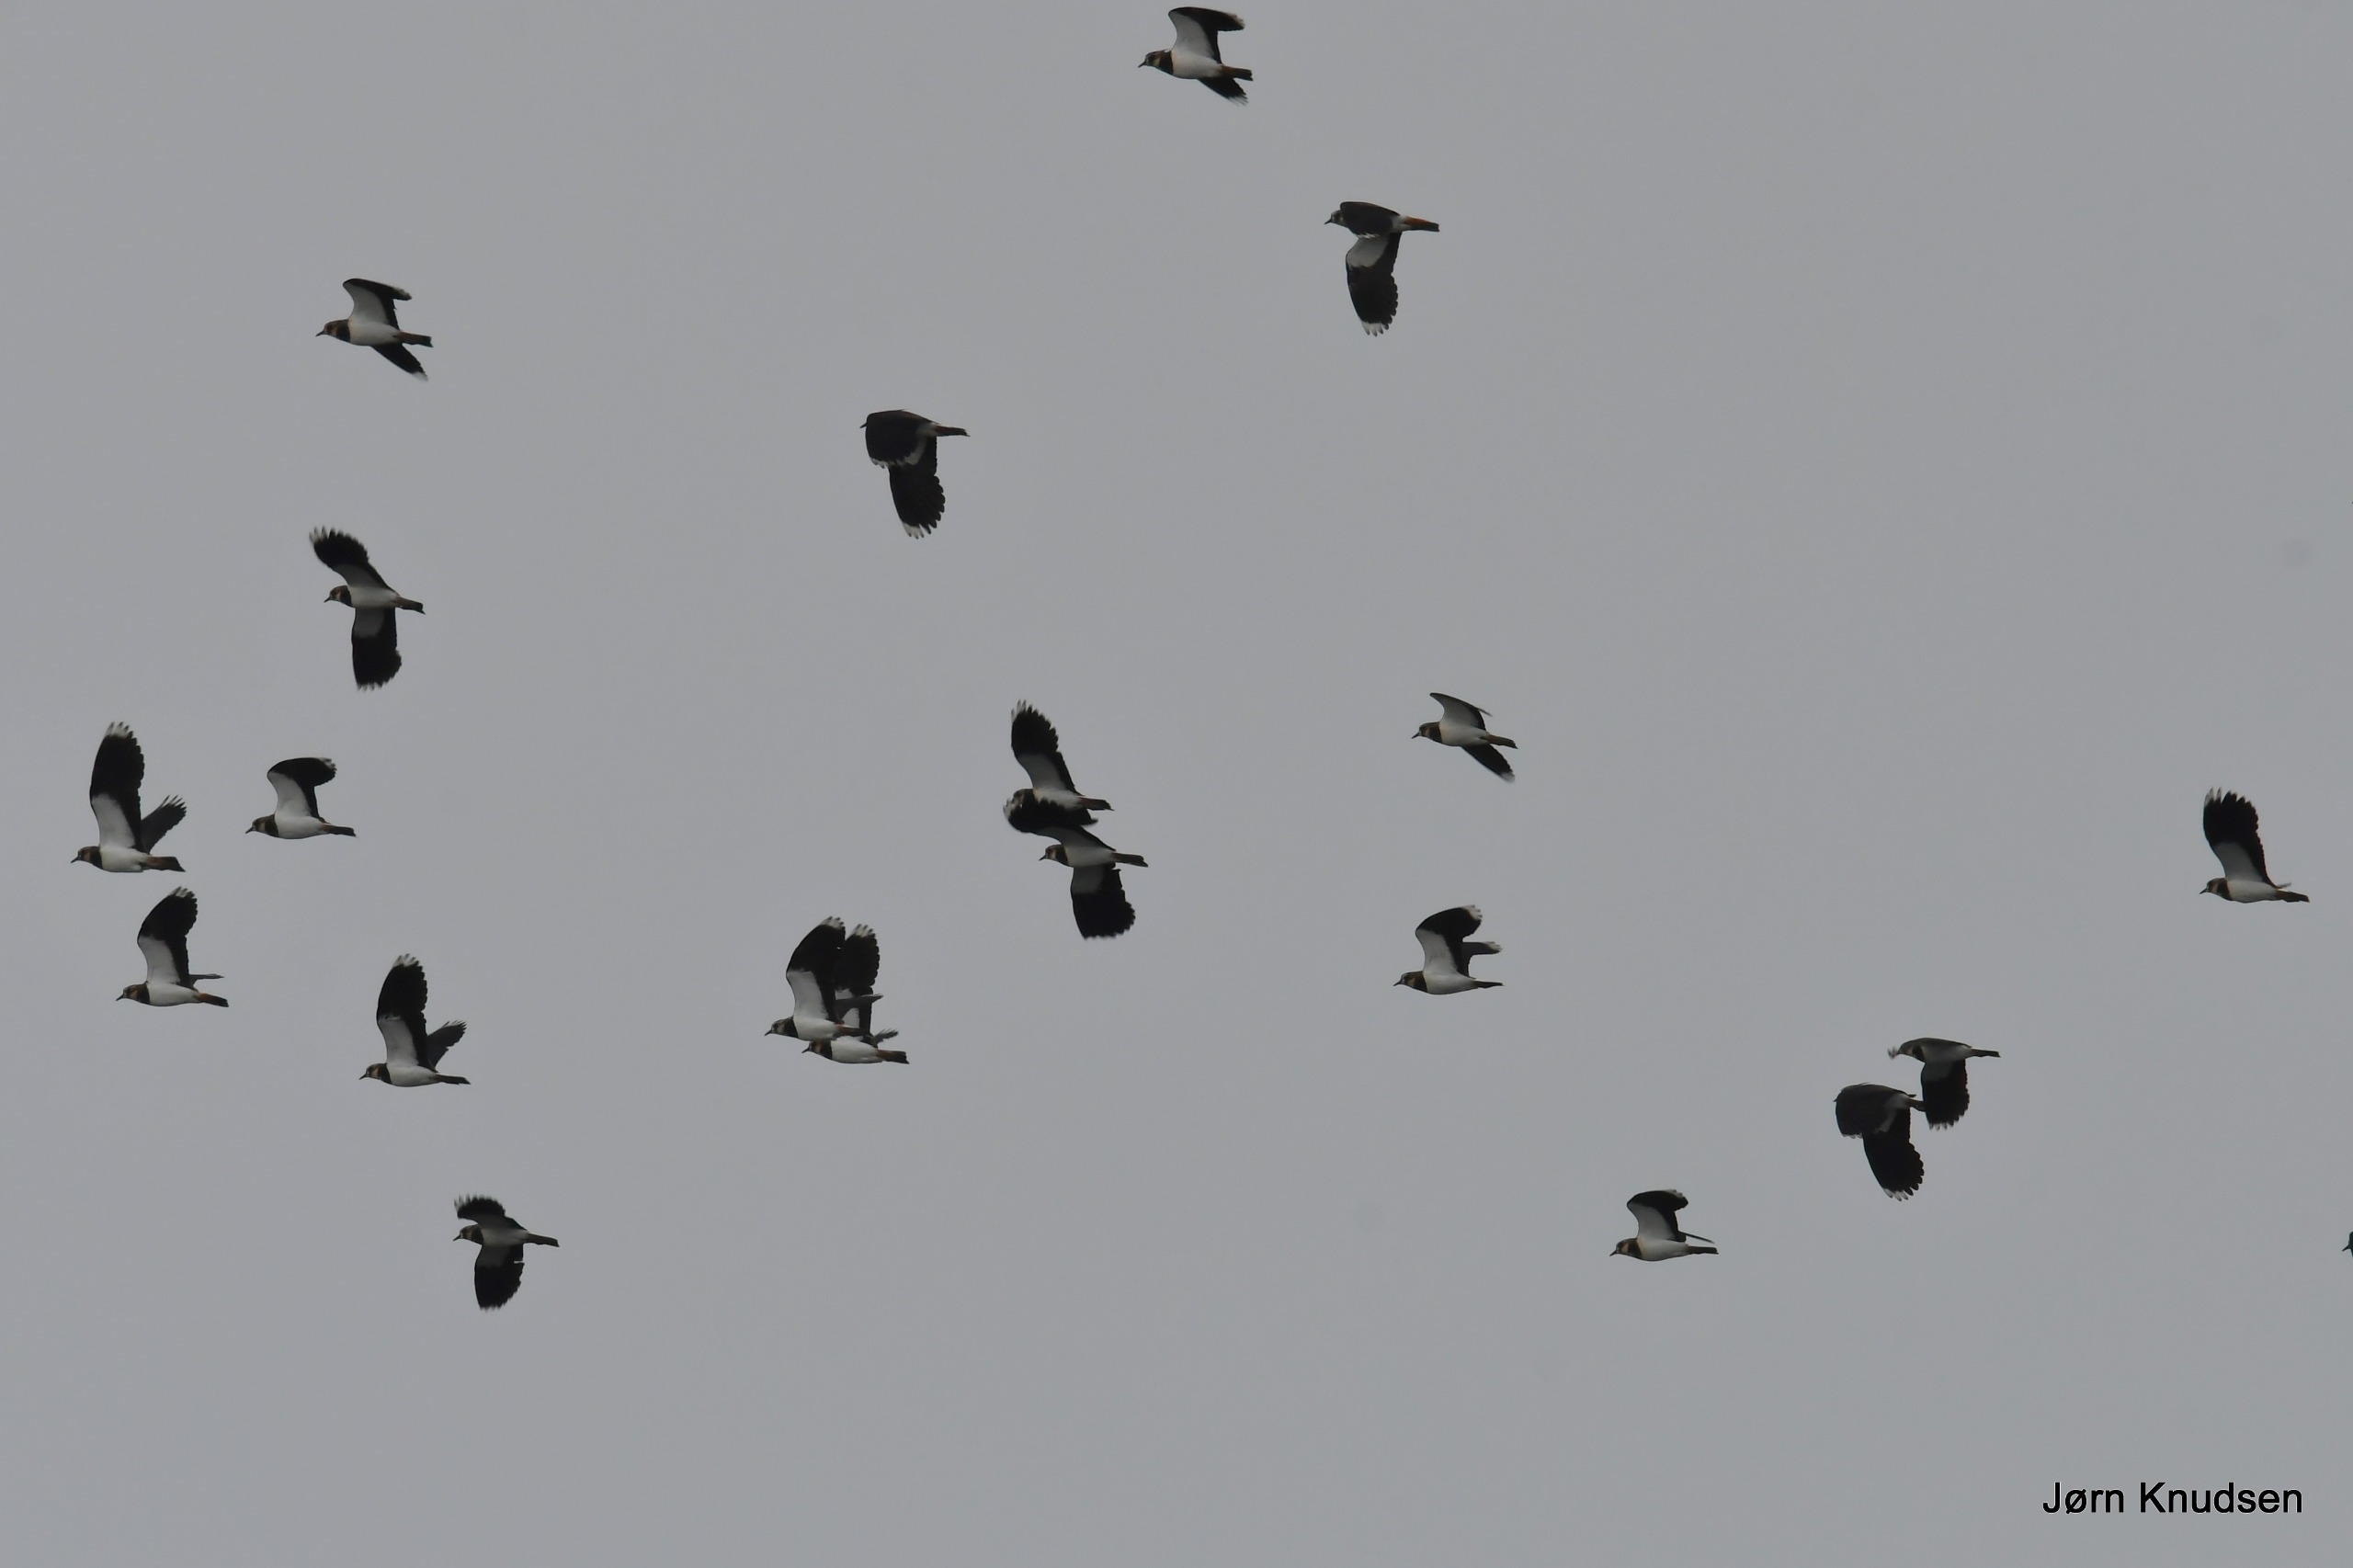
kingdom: Animalia
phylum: Chordata
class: Aves
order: Charadriiformes
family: Charadriidae
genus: Vanellus
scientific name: Vanellus vanellus
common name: Vibe
